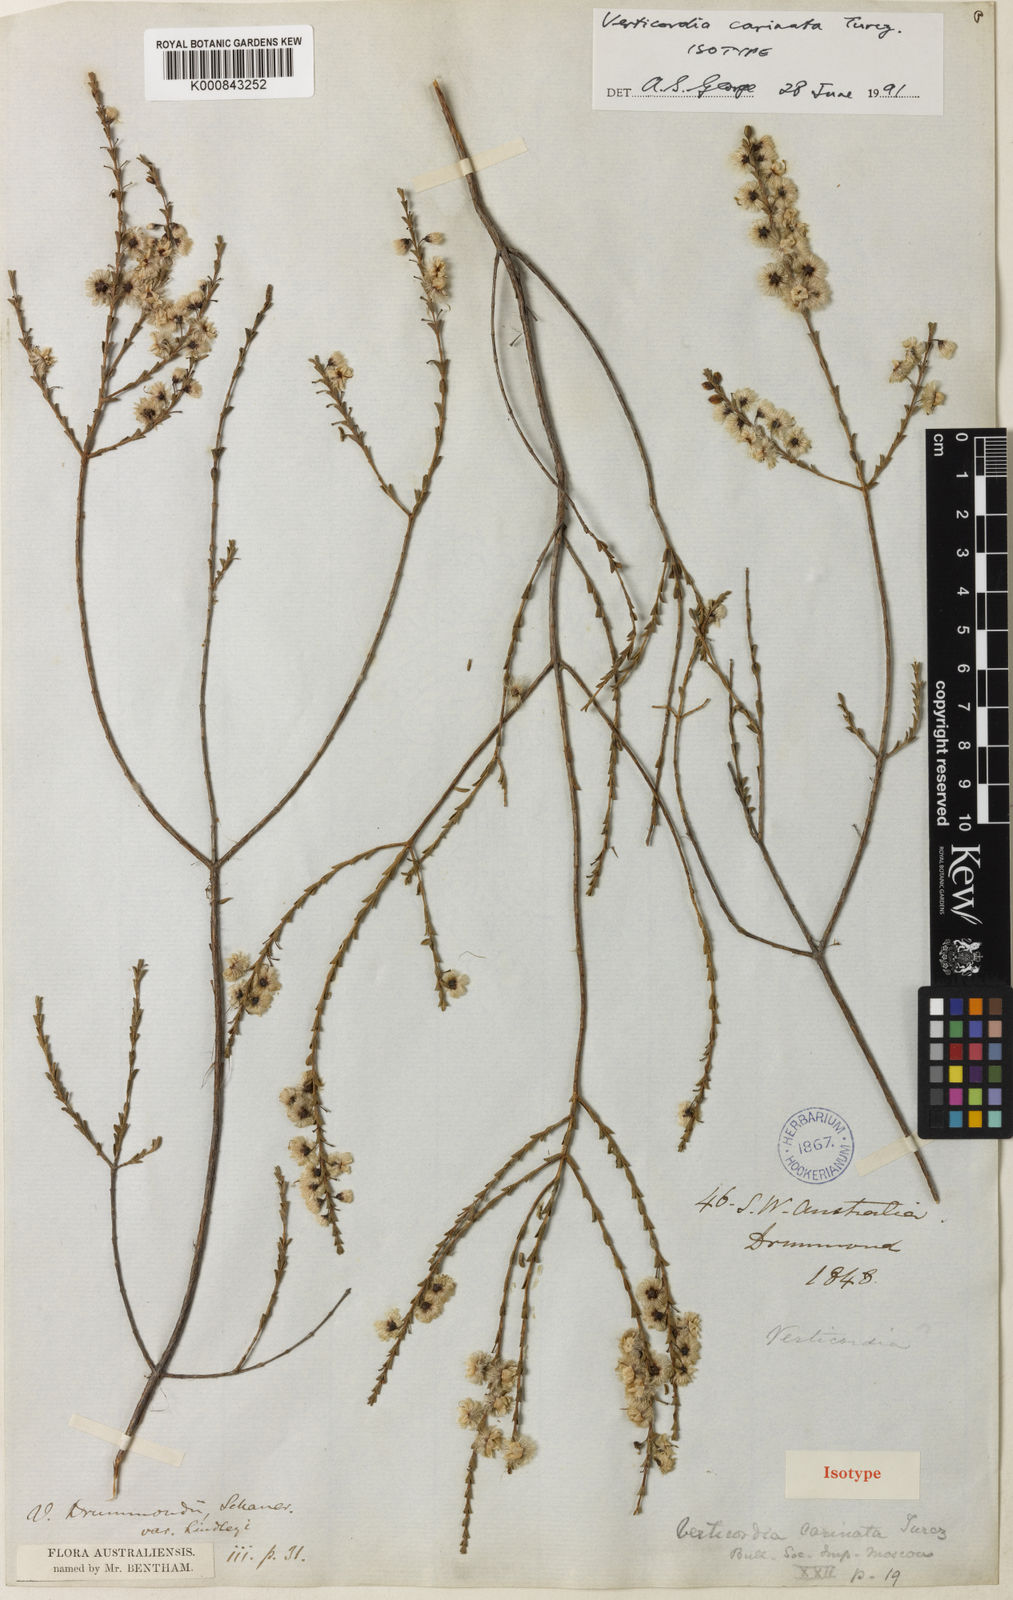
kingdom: Plantae
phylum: Tracheophyta
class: Magnoliopsida
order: Myrtales
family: Myrtaceae
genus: Verticordia
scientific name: Verticordia carinata
